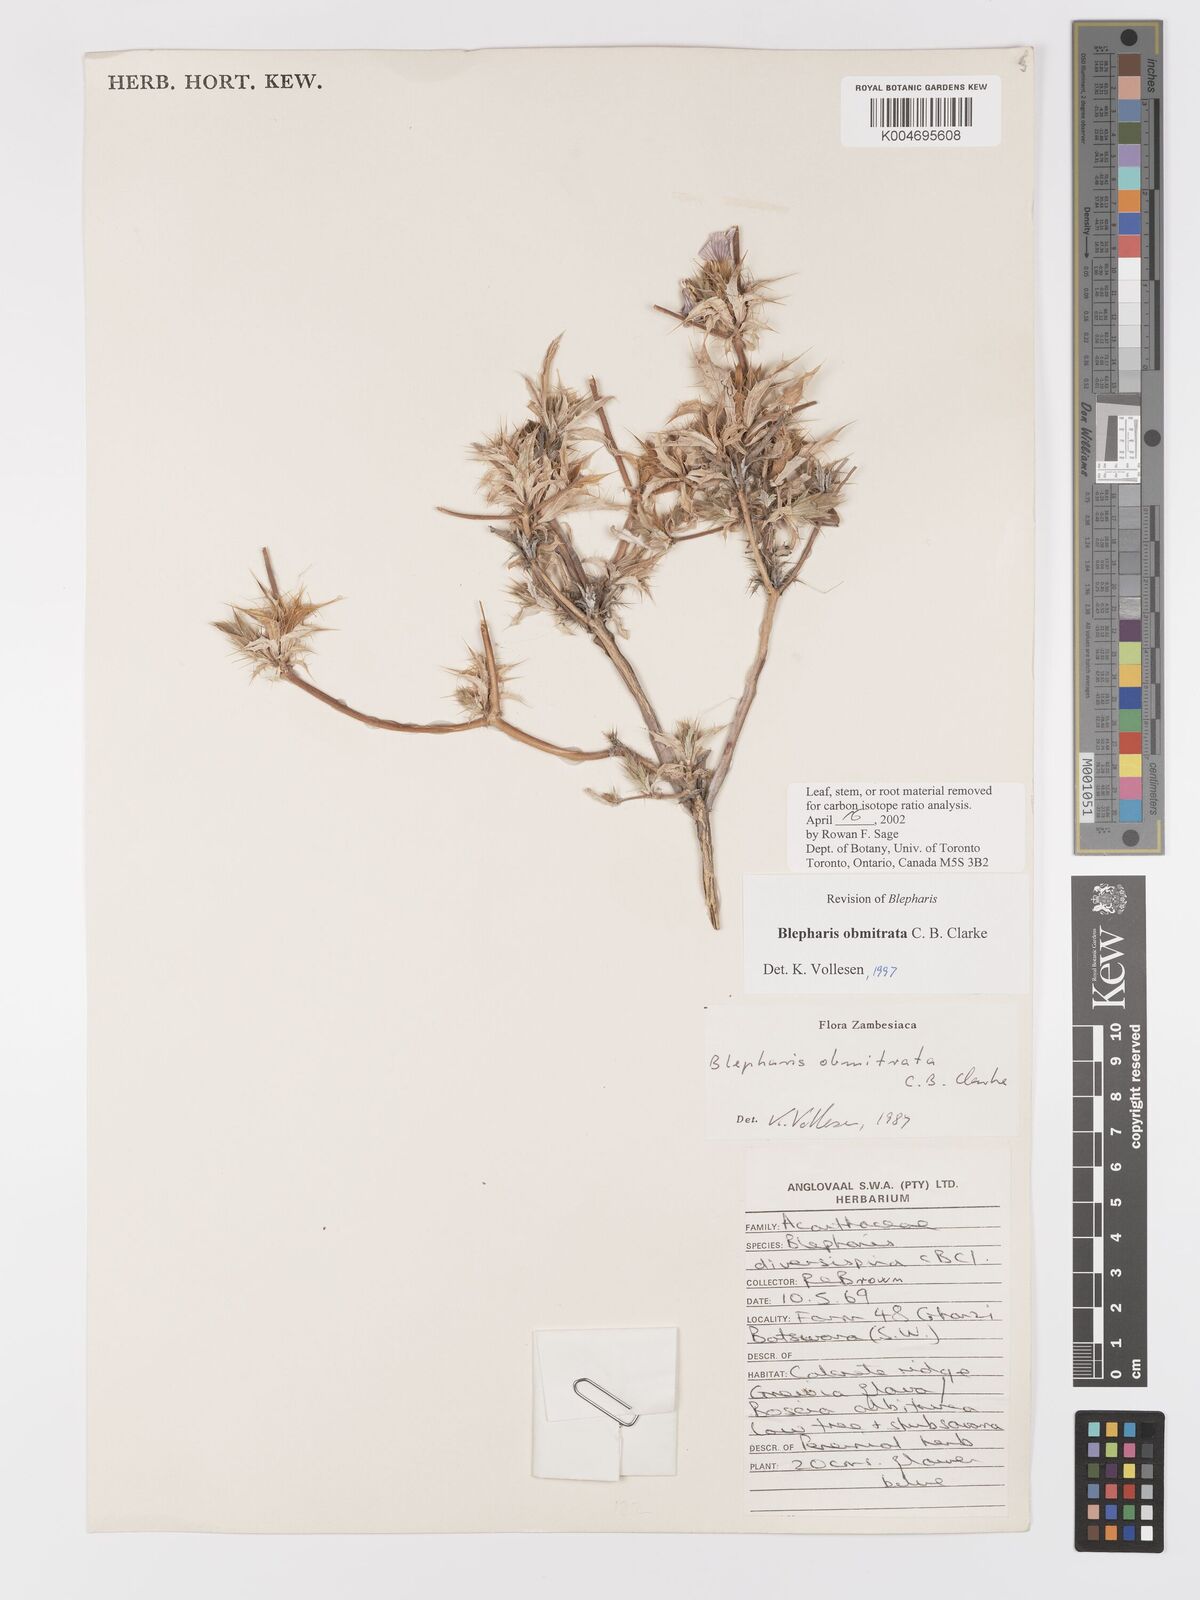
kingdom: Plantae
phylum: Tracheophyta
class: Magnoliopsida
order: Lamiales
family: Acanthaceae
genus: Blepharis
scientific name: Blepharis obmitrata
